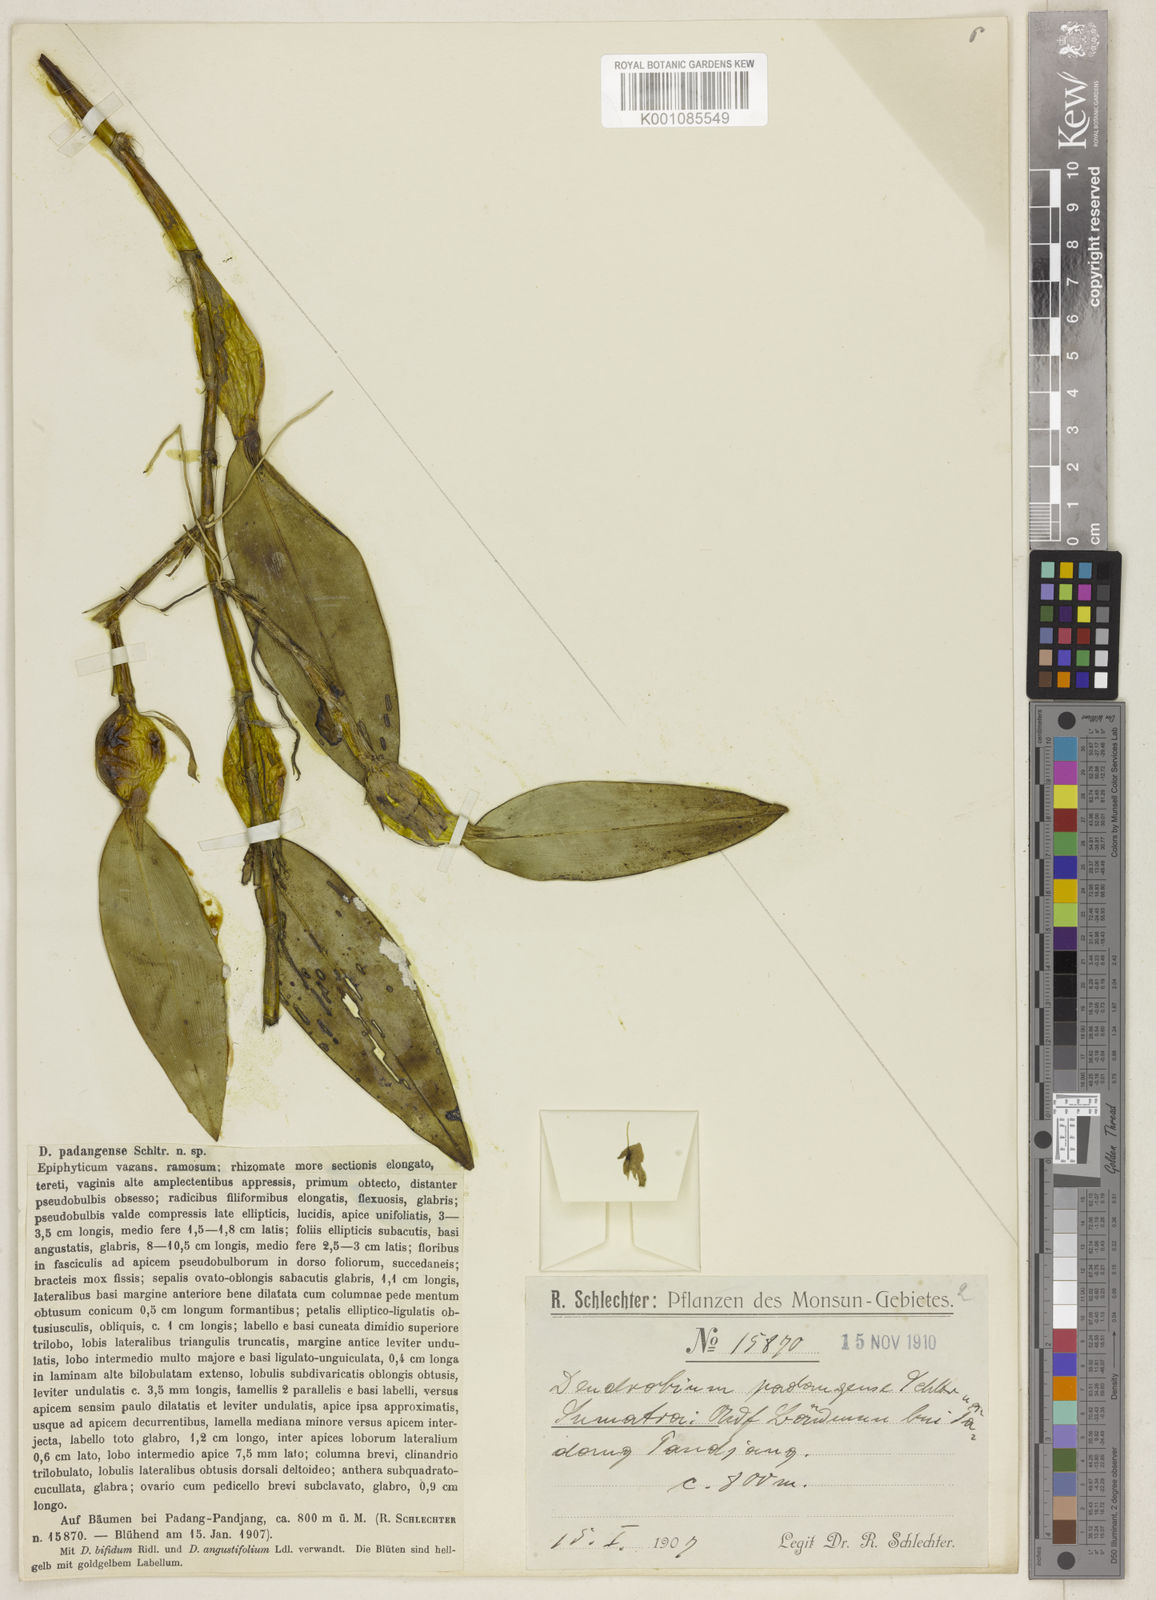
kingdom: Plantae
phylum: Tracheophyta
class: Liliopsida
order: Asparagales
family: Orchidaceae
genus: Dendrobium
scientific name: Dendrobium flabelloides
